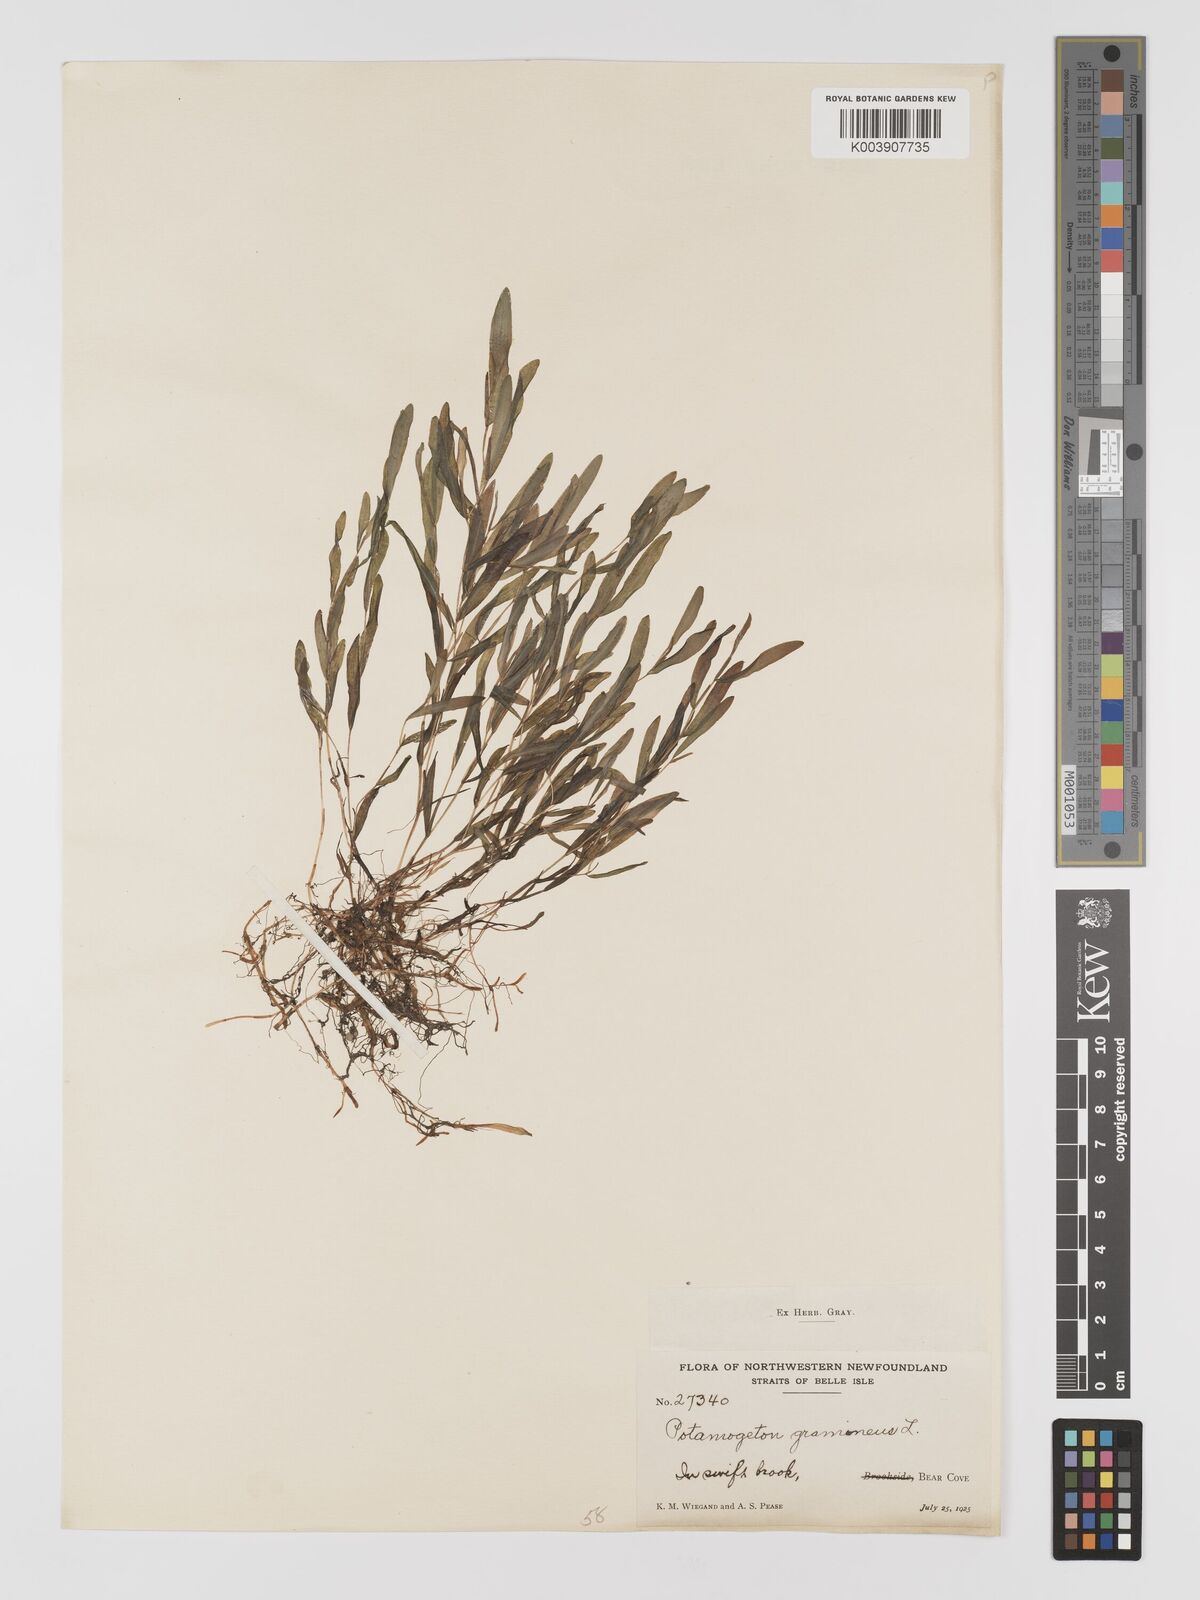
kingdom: Plantae
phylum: Tracheophyta
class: Liliopsida
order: Alismatales
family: Potamogetonaceae
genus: Potamogeton
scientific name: Potamogeton gramineus
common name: Various-leaved pondweed
